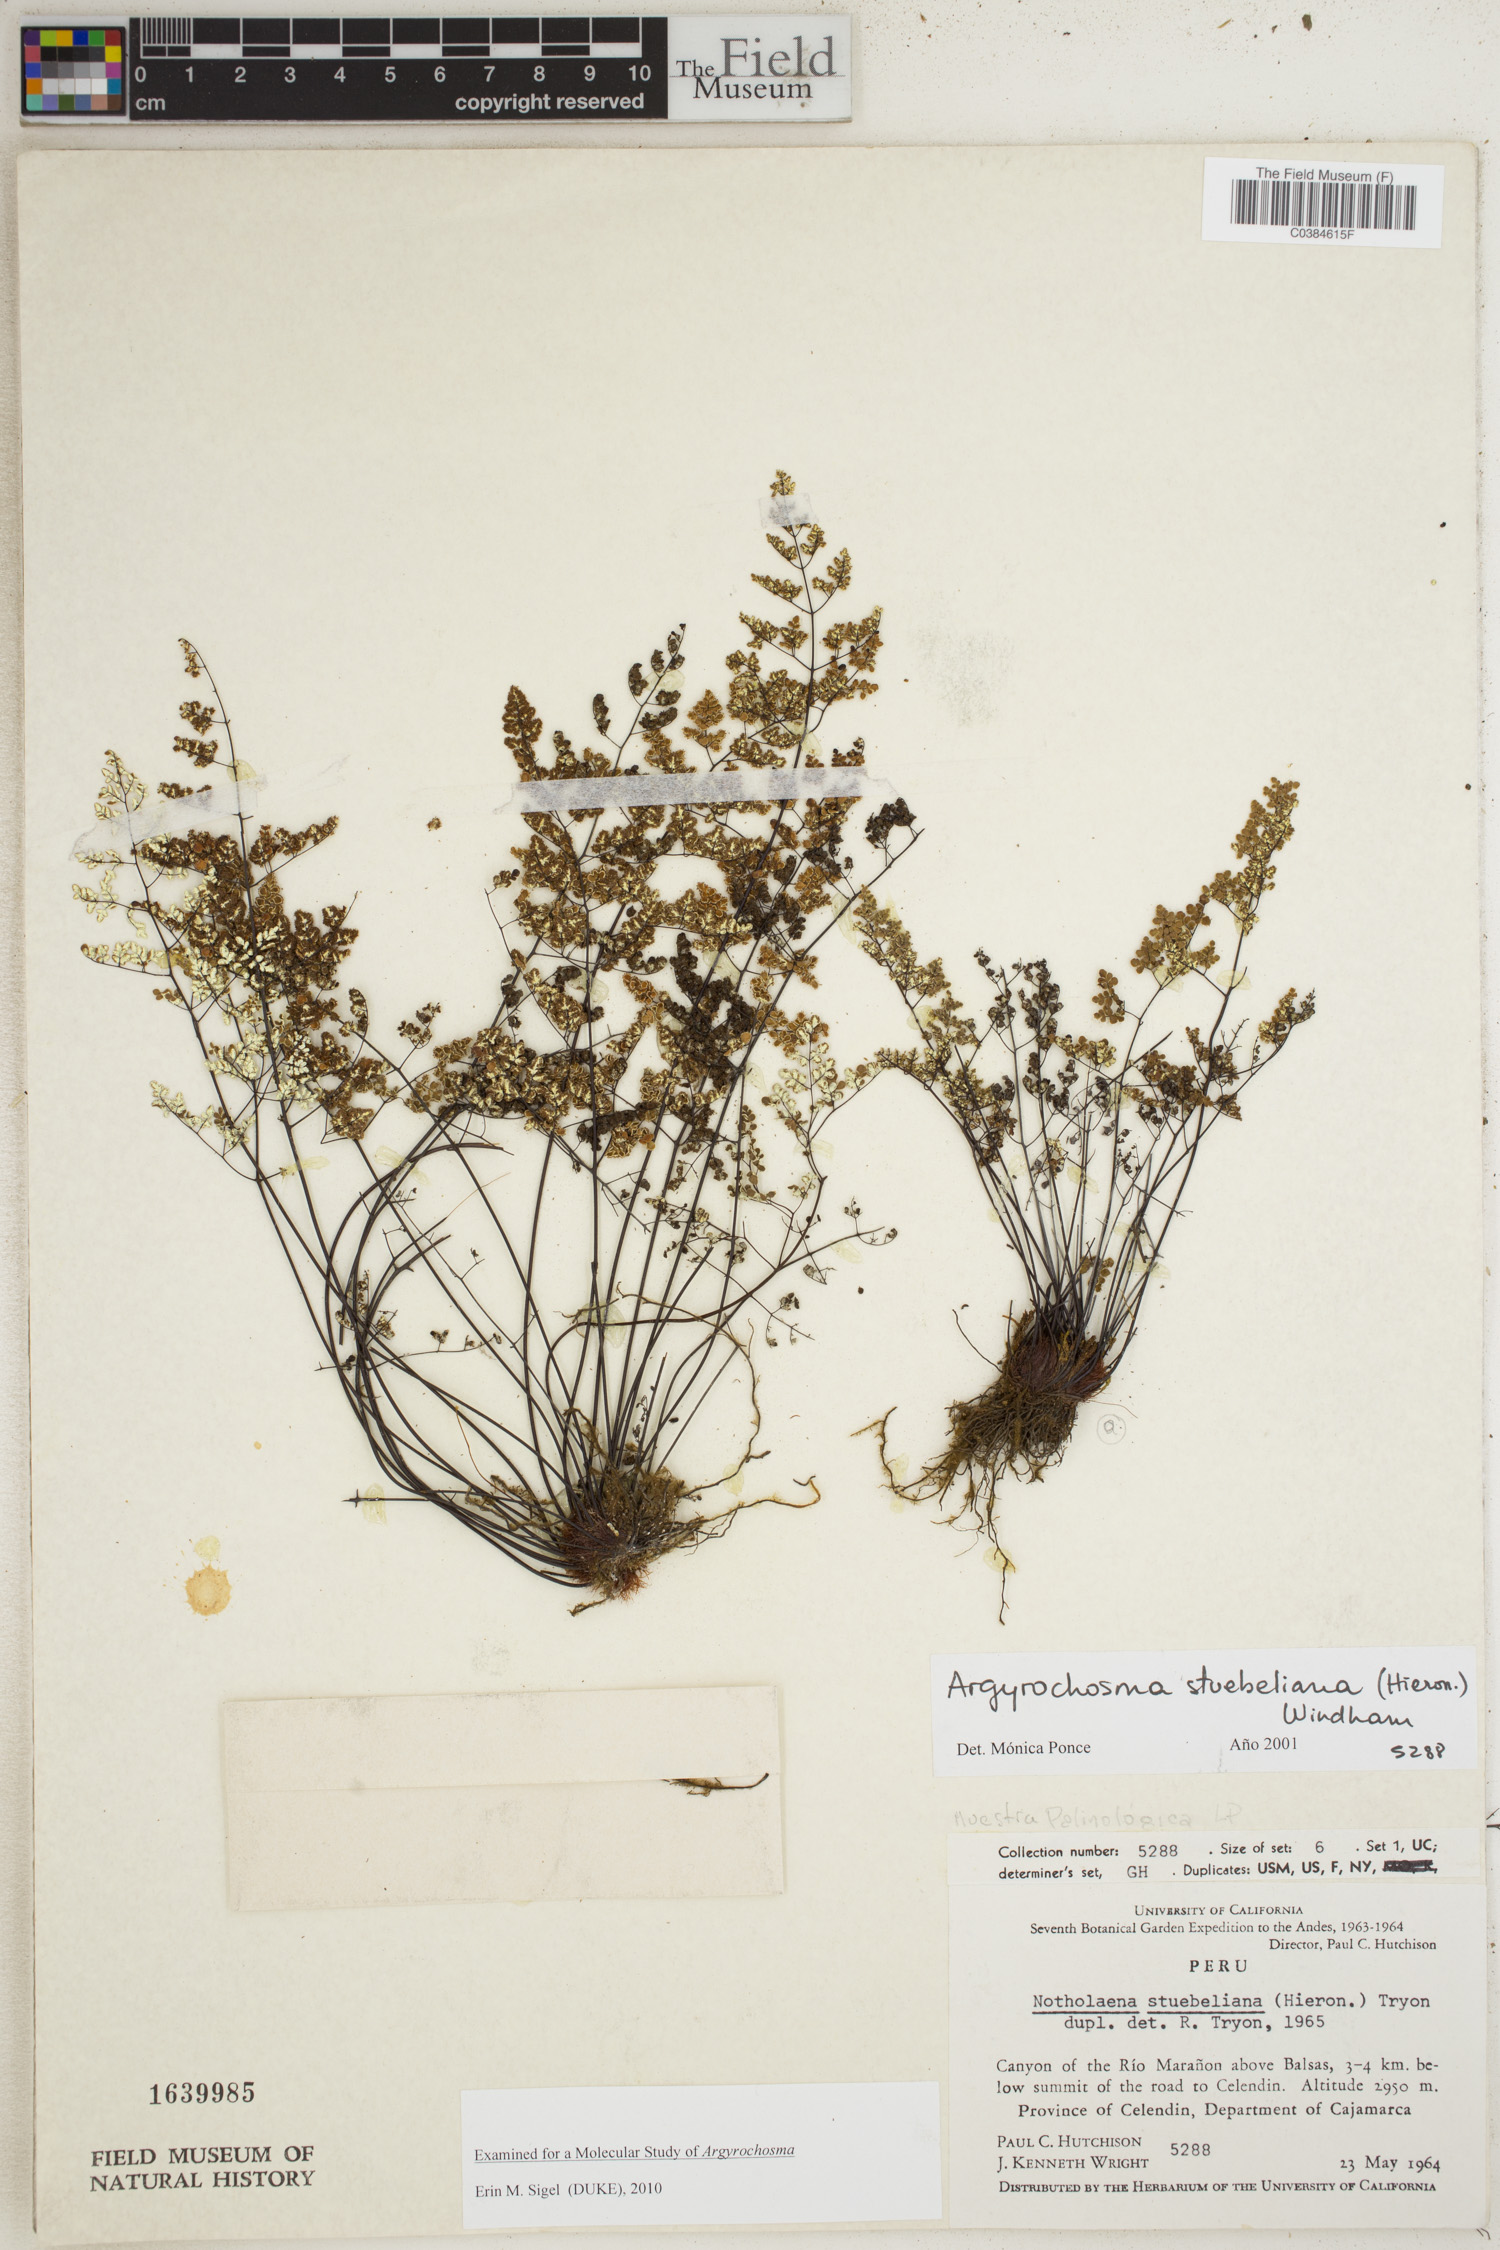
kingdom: Plantae
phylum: Tracheophyta
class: Polypodiopsida
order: Polypodiales
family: Pteridaceae
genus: Argyrochosma
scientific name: Argyrochosma stuebeliana
